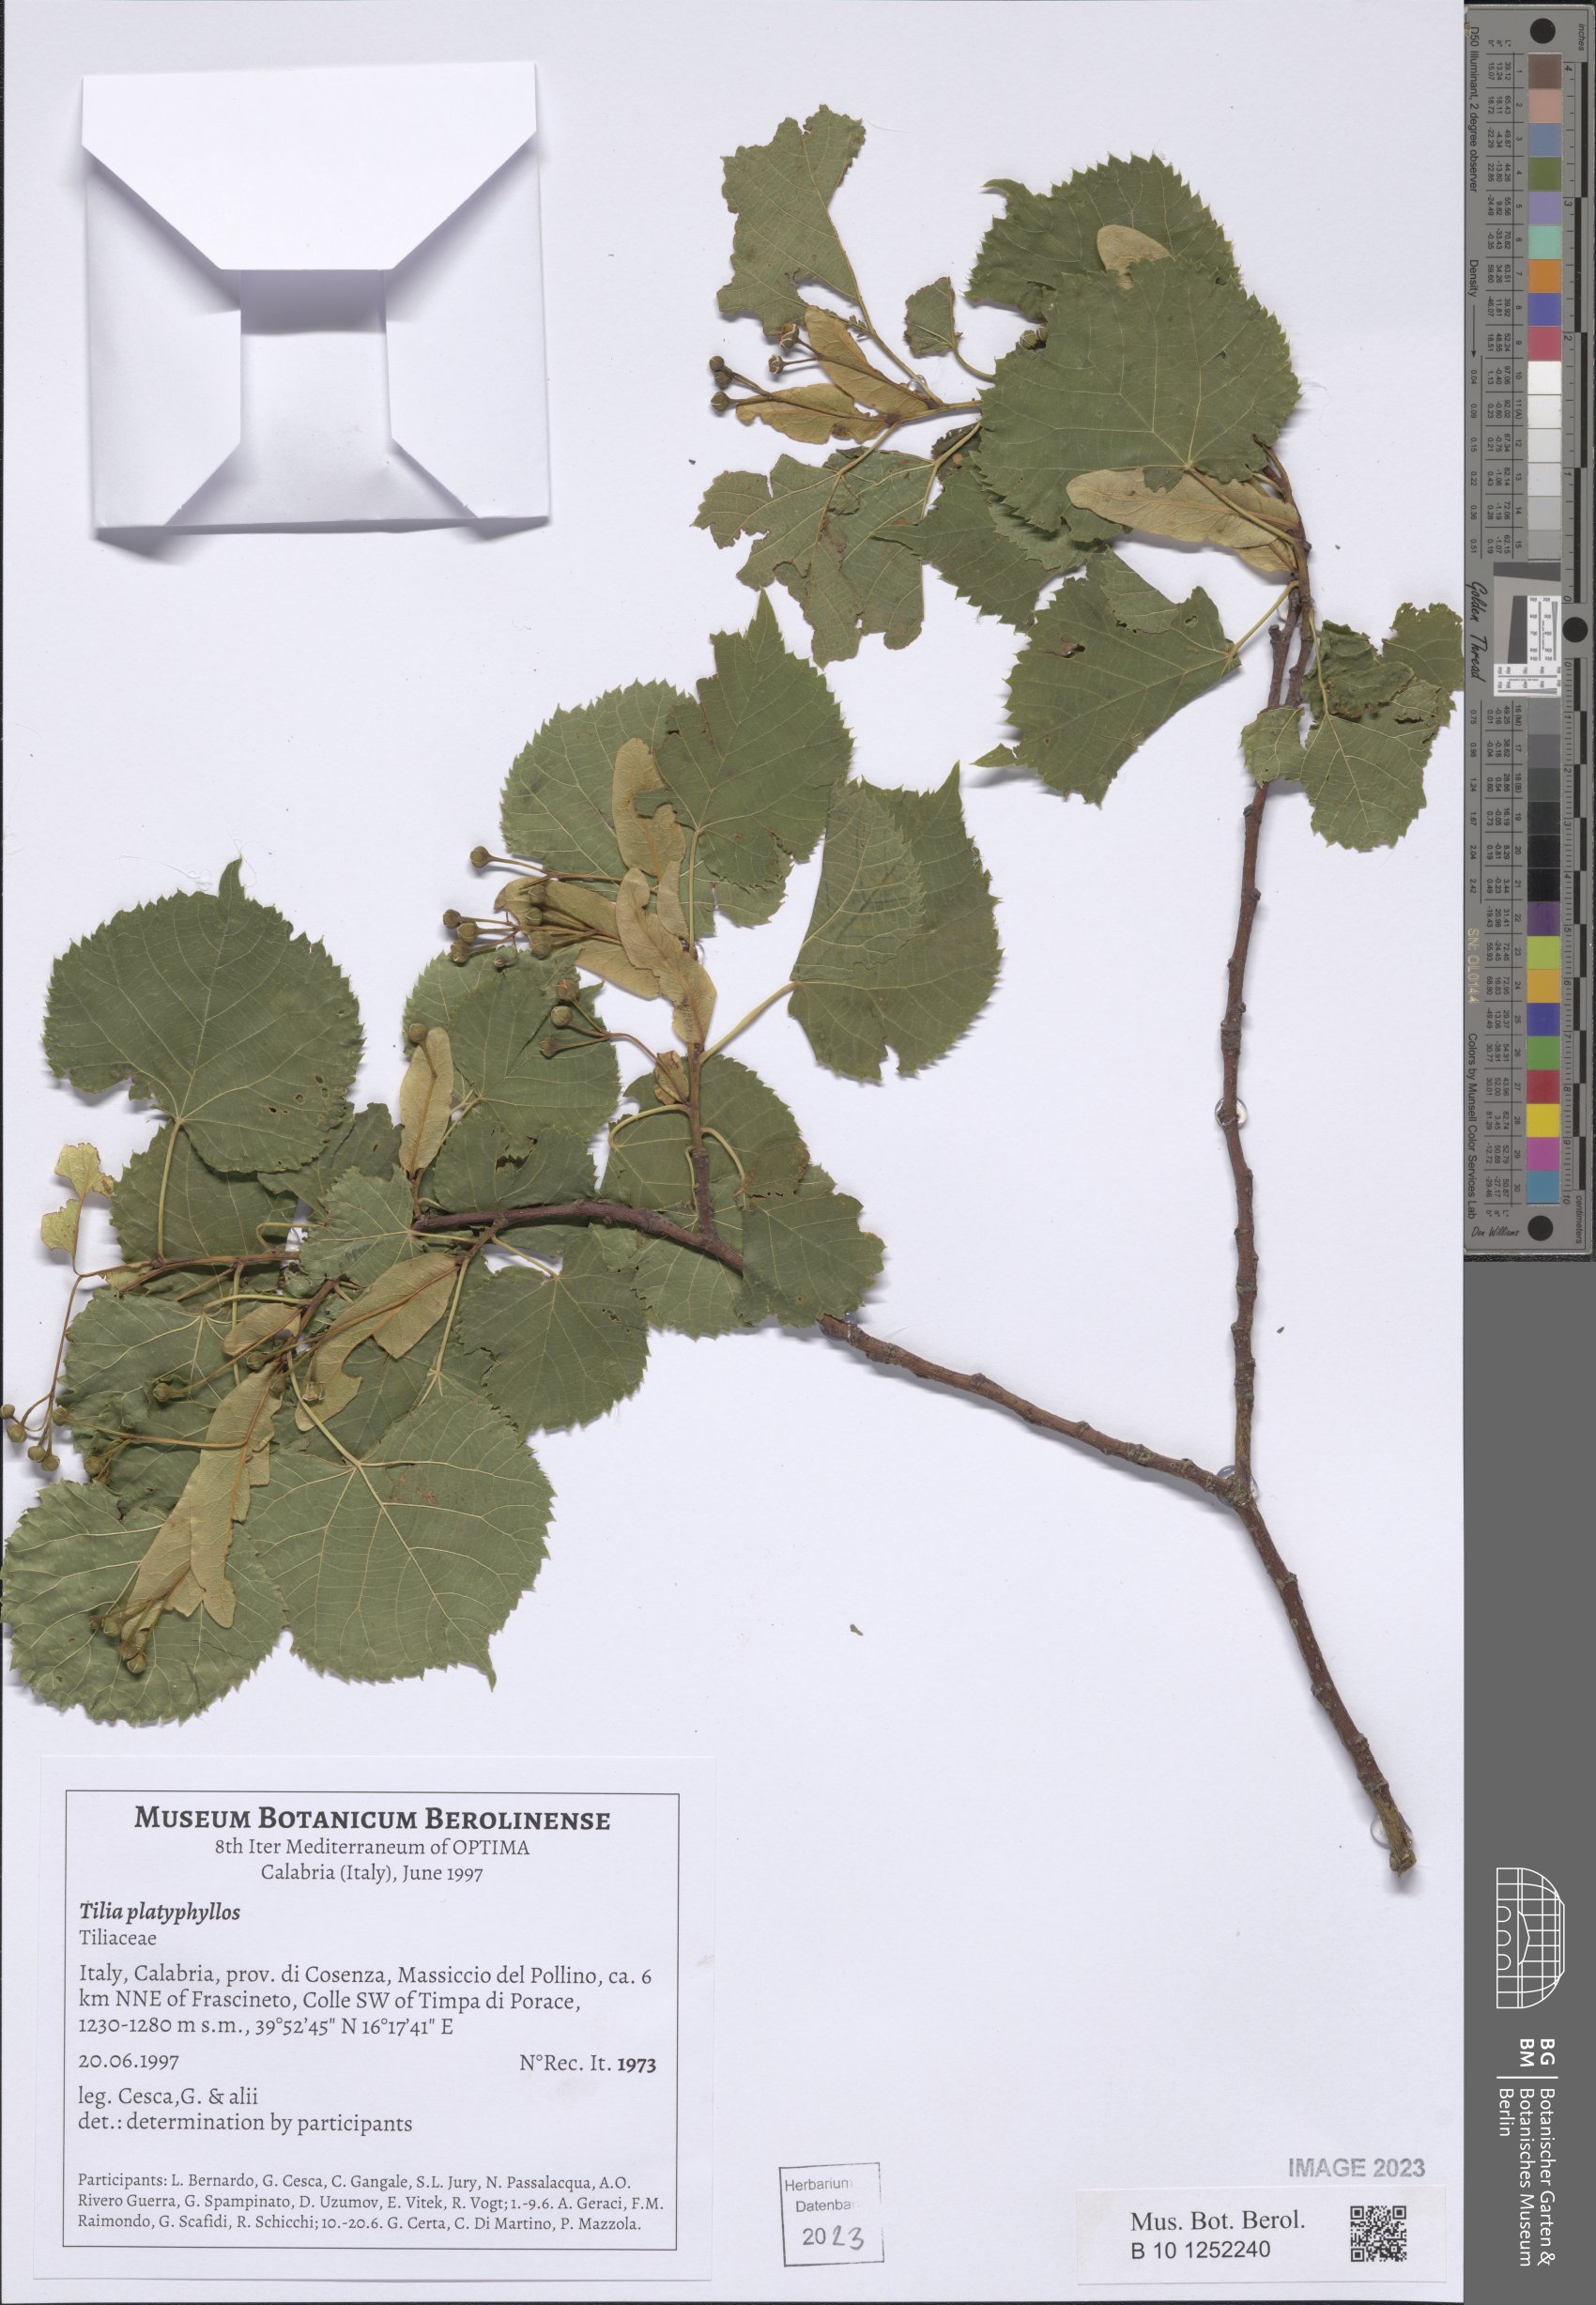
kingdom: Plantae
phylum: Tracheophyta
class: Magnoliopsida
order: Malvales
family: Malvaceae
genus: Tilia
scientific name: Tilia platyphyllos
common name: Large-leaved lime
